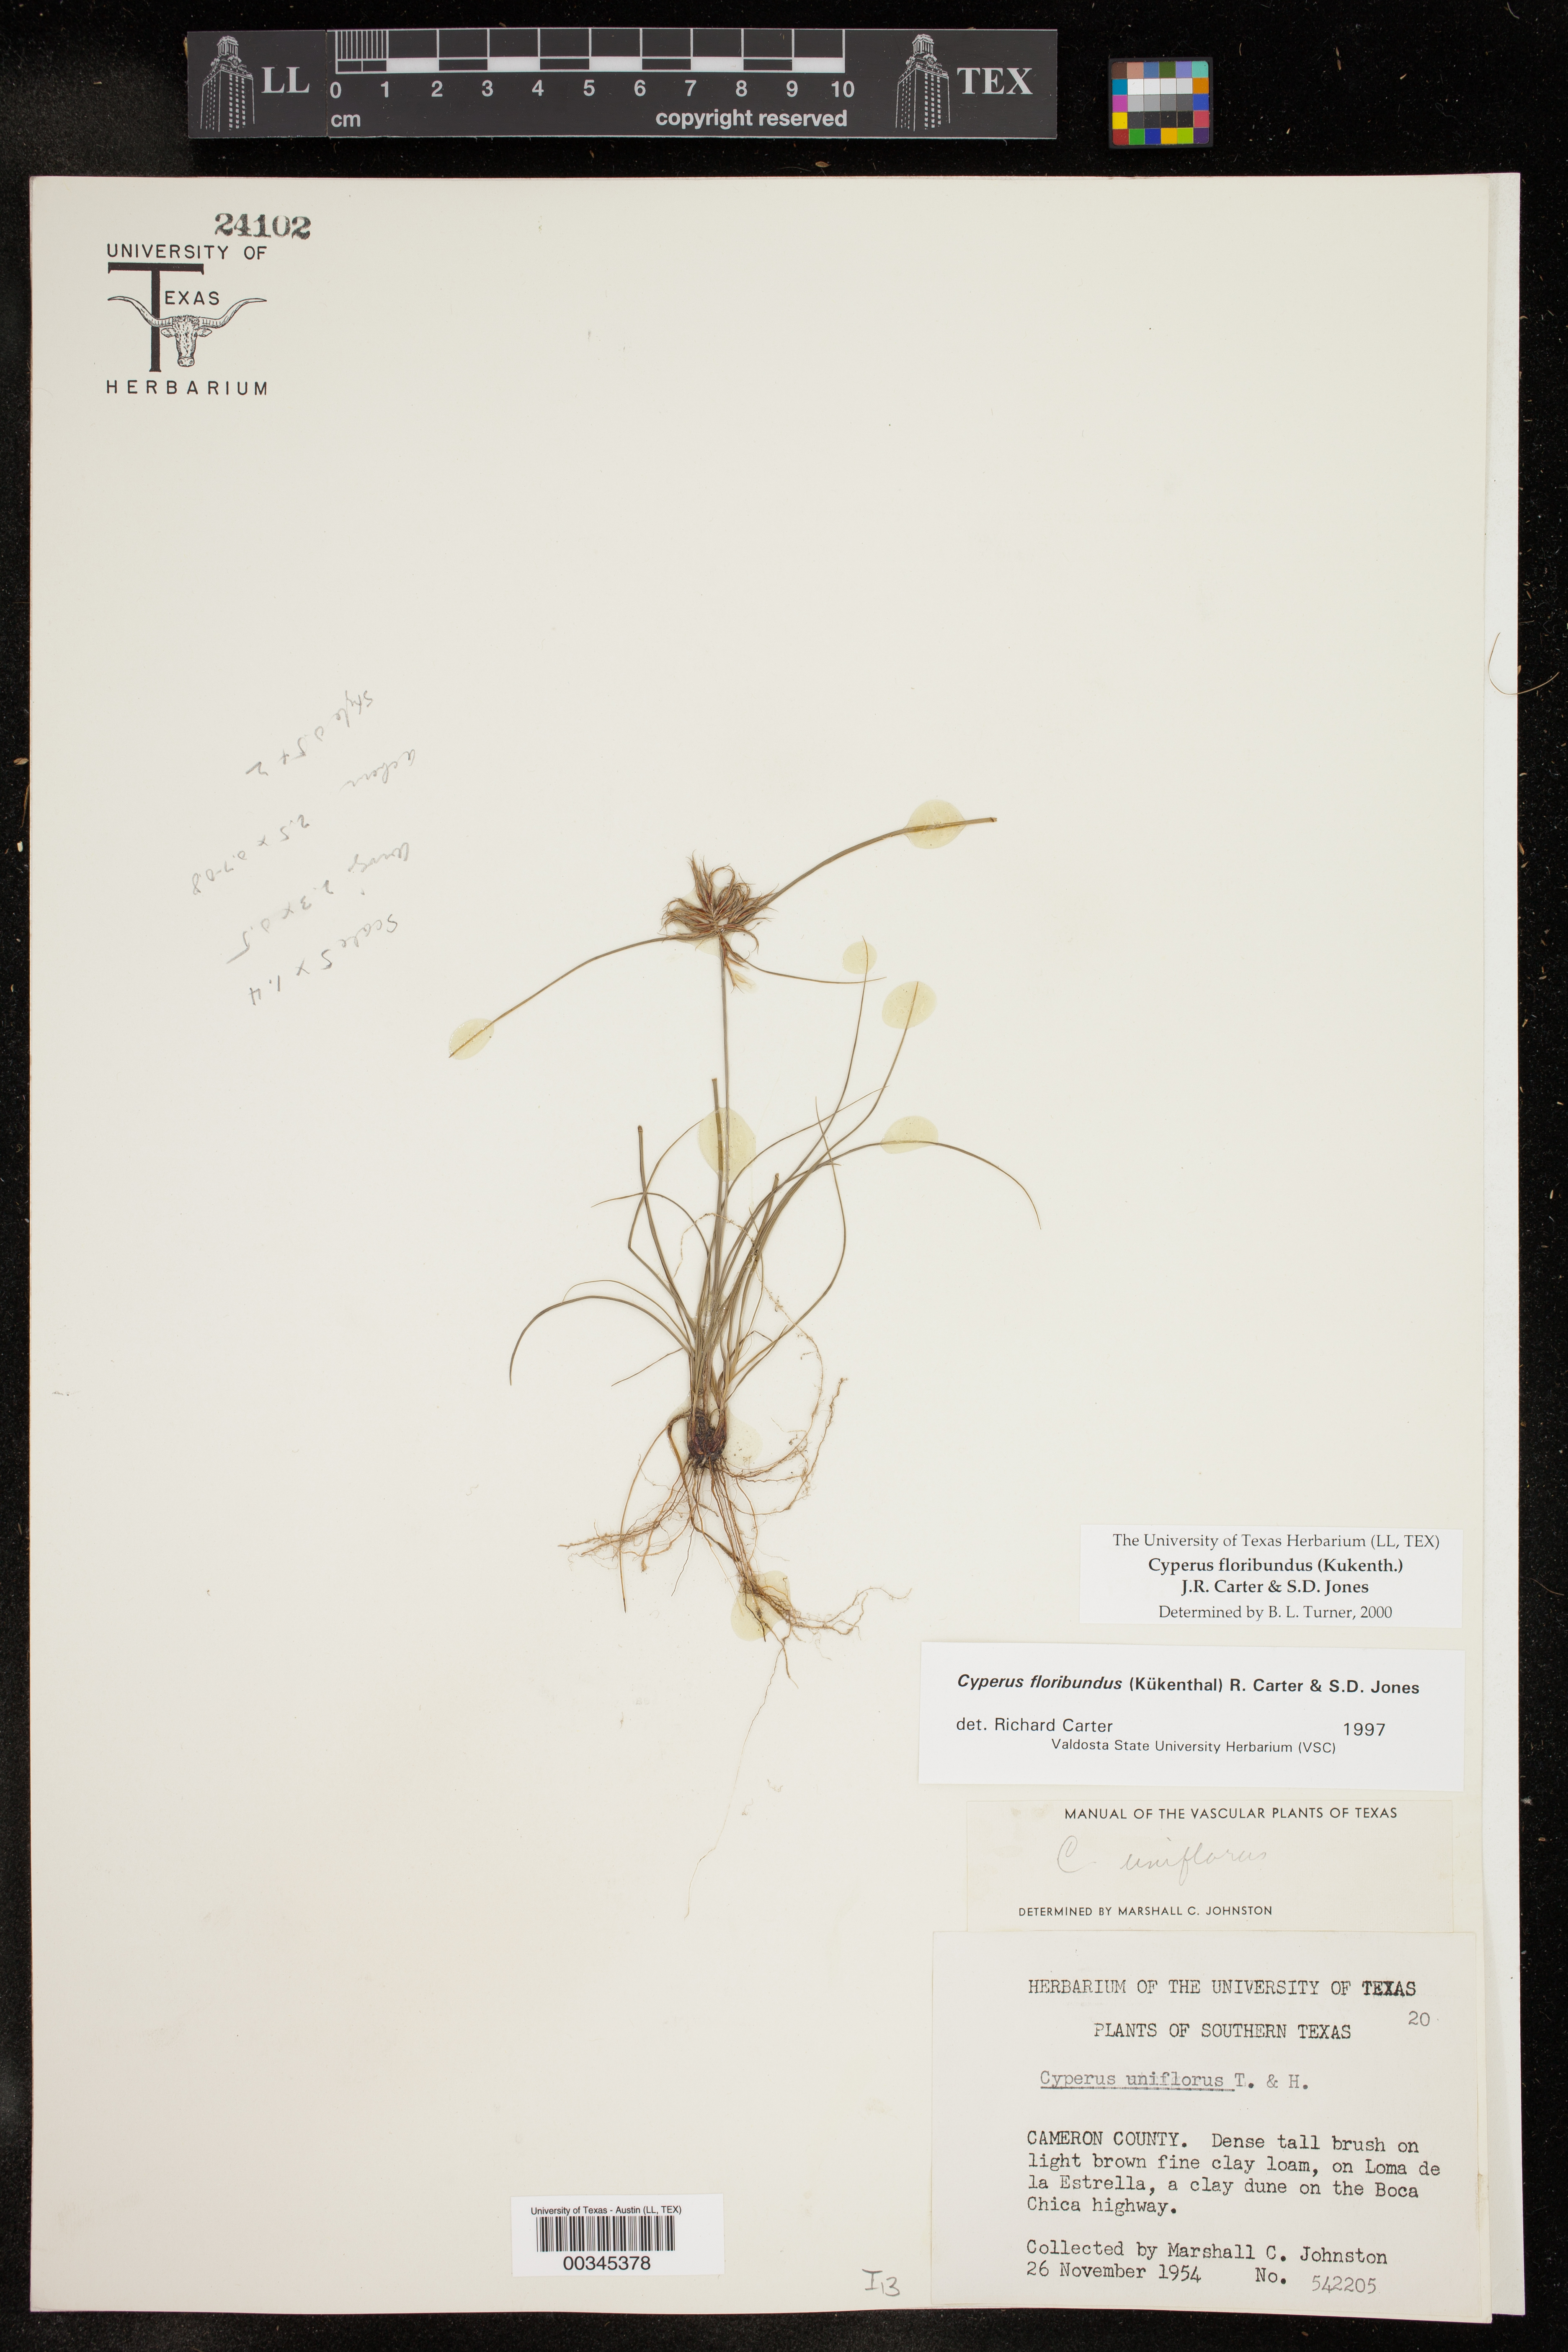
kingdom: Plantae
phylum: Tracheophyta
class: Liliopsida
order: Poales
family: Cyperaceae
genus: Cyperus
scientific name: Cyperus floribundus
